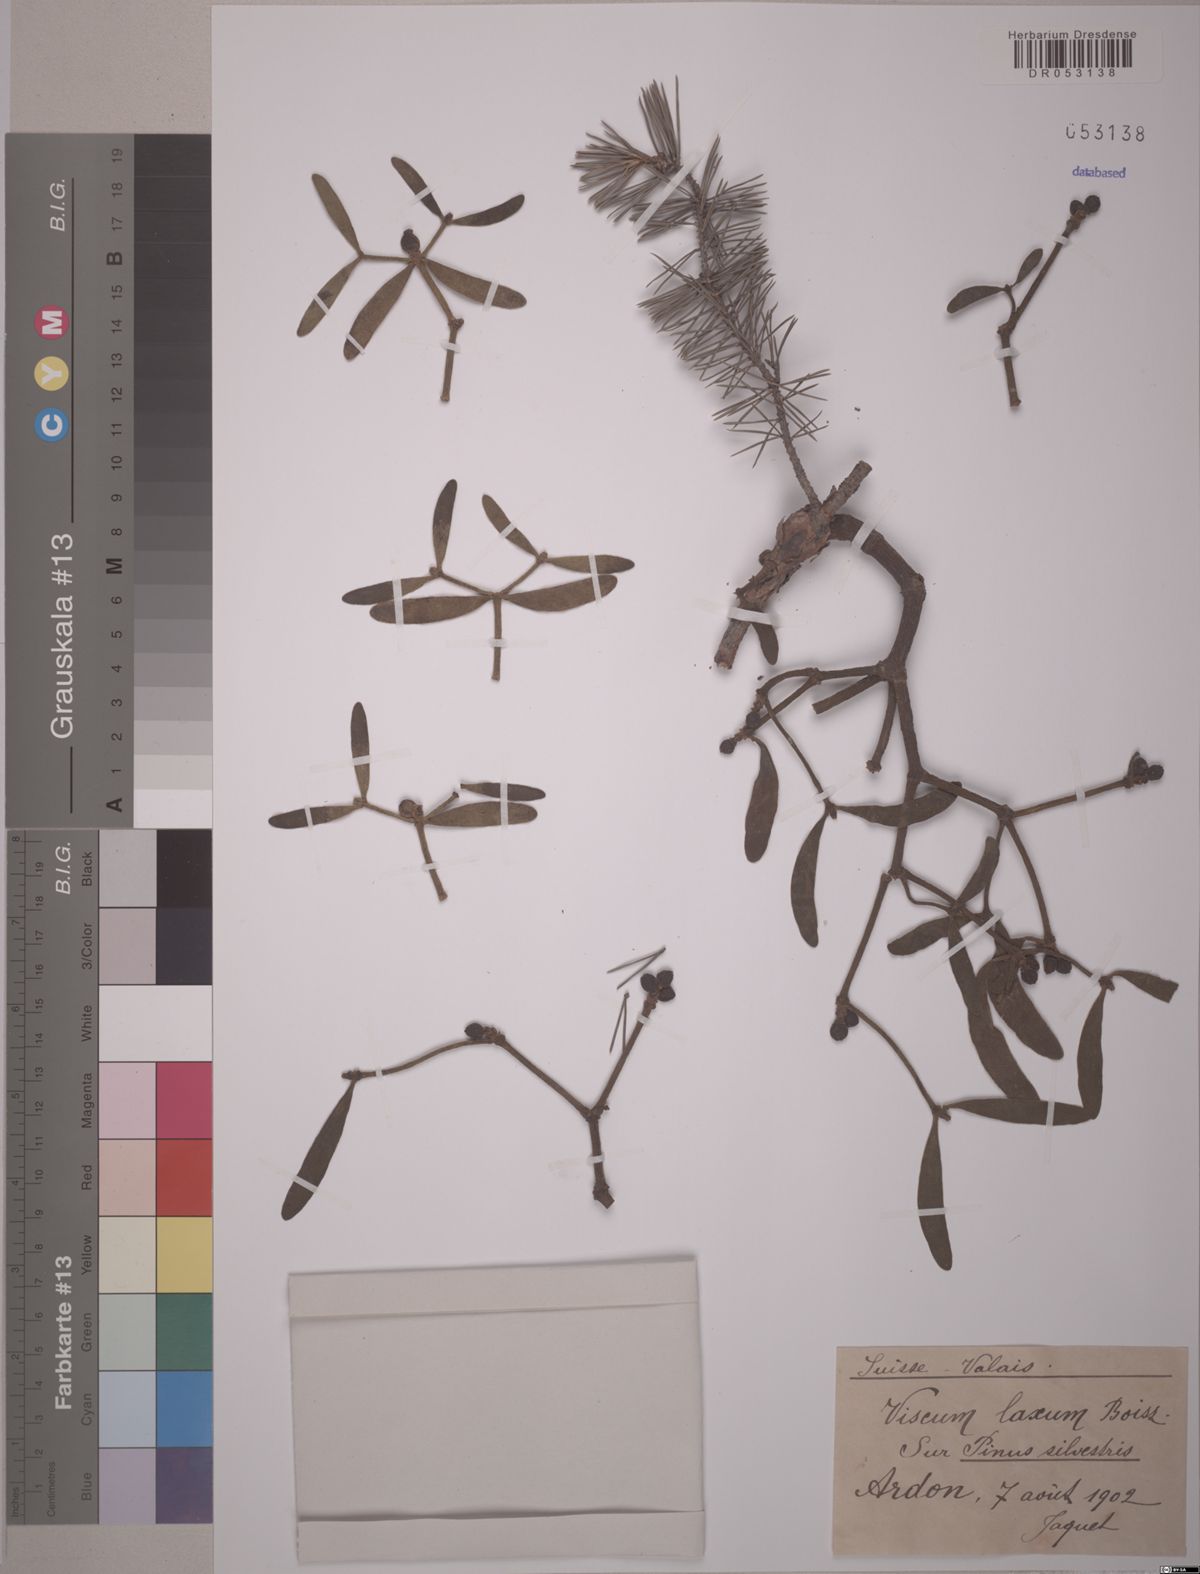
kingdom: Plantae
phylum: Tracheophyta
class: Magnoliopsida
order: Santalales
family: Viscaceae
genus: Viscum
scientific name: Viscum laxum
